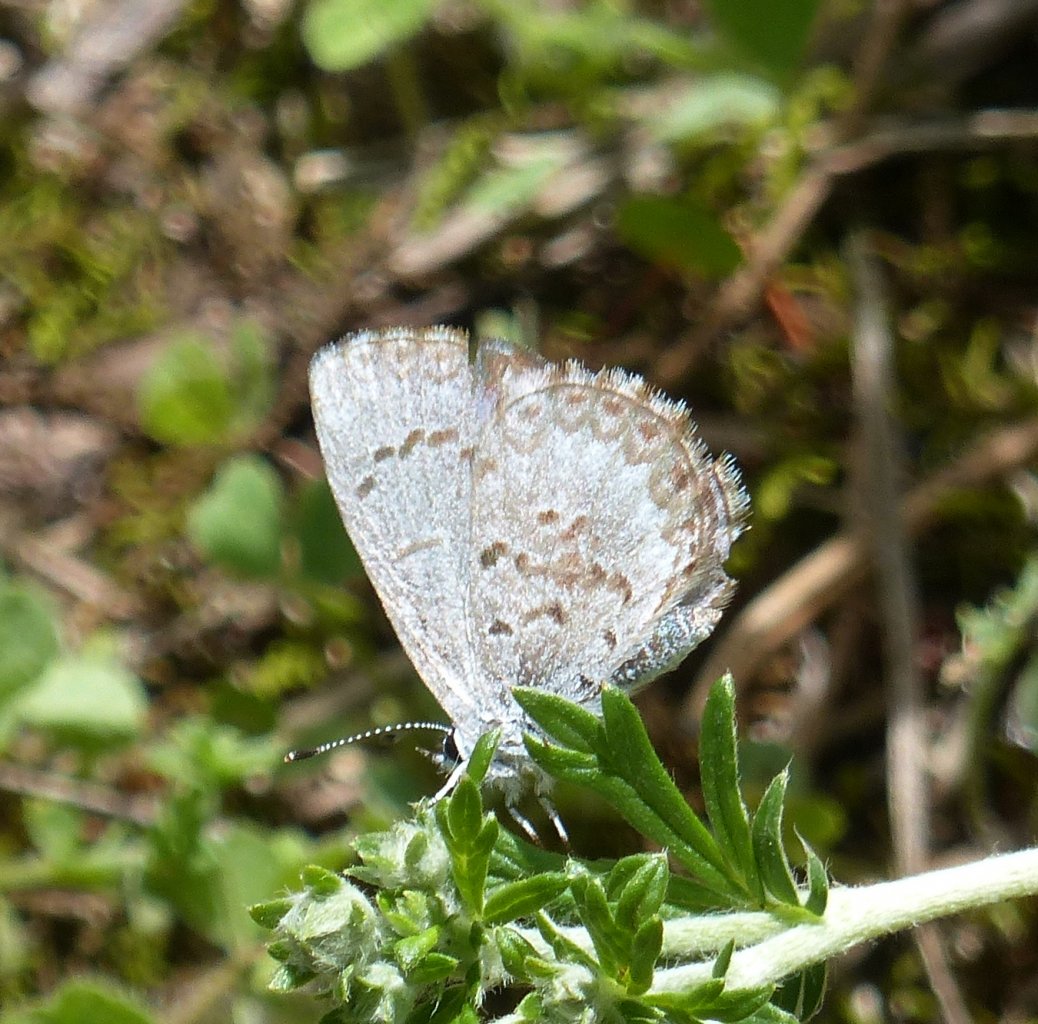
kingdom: Animalia
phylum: Arthropoda
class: Insecta
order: Lepidoptera
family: Lycaenidae
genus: Celastrina
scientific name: Celastrina lucia
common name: Northern Spring Azure
